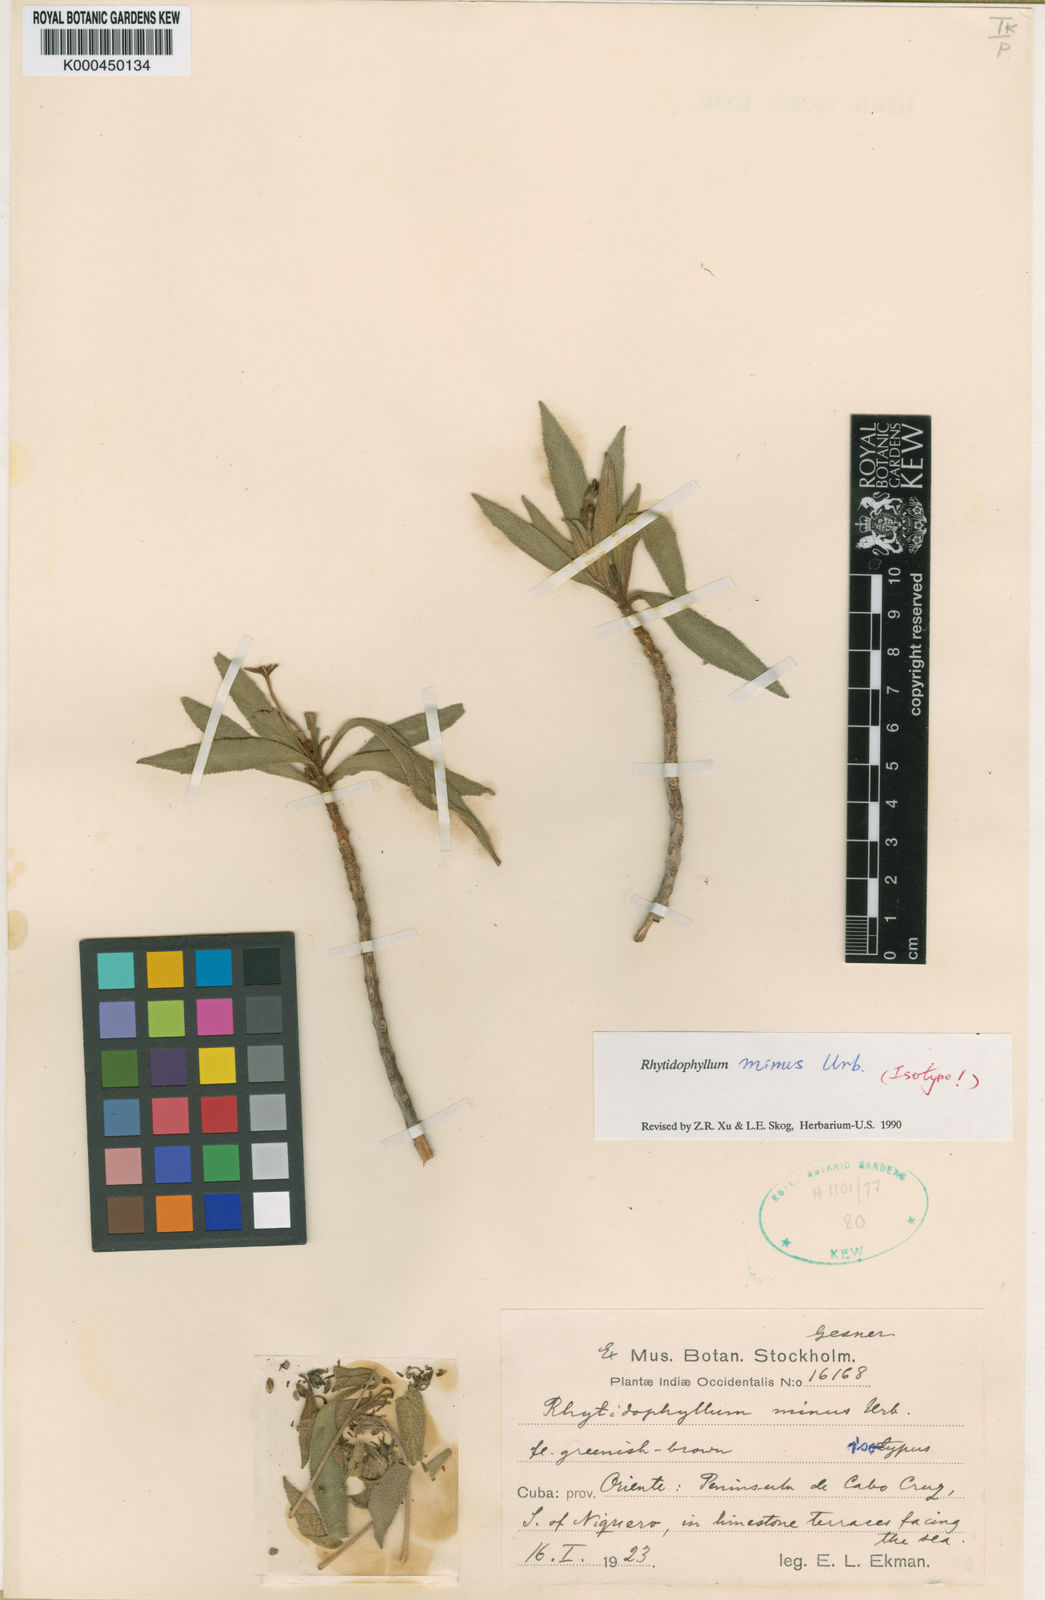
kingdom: Plantae
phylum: Tracheophyta
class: Magnoliopsida
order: Lamiales
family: Gesneriaceae
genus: Rhytidophyllum
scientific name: Rhytidophyllum minus
